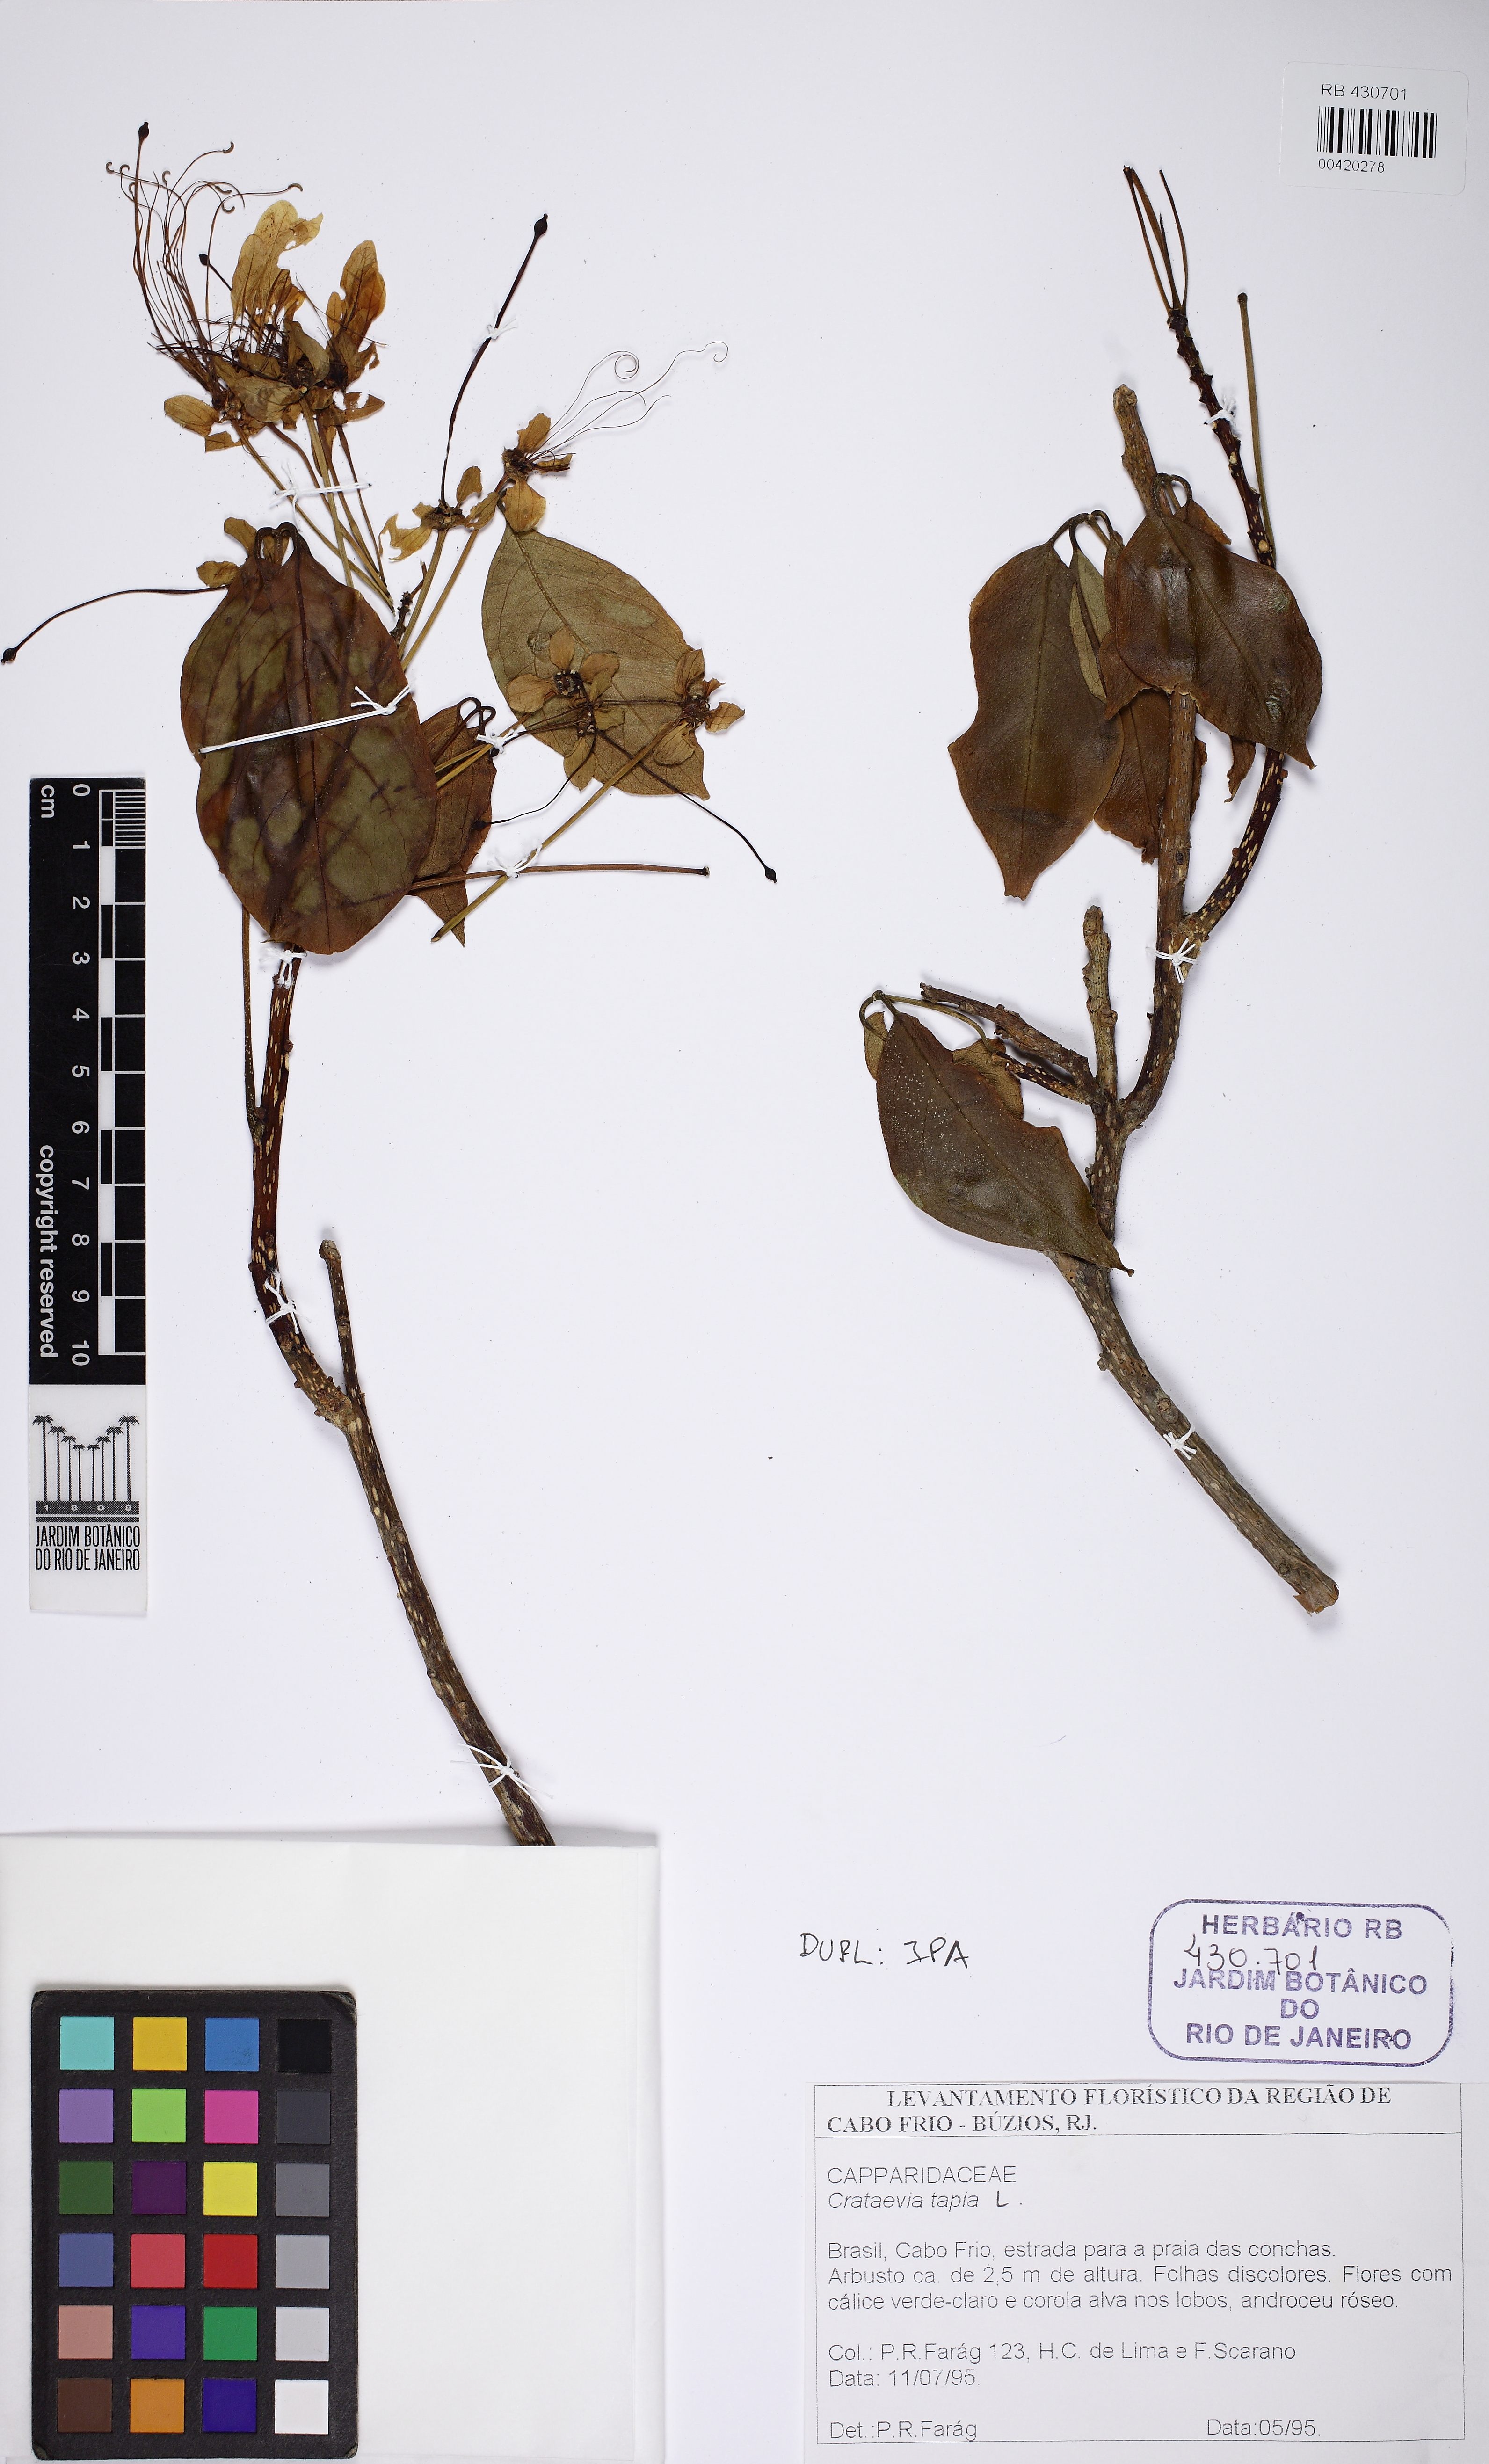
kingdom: Plantae
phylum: Tracheophyta
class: Magnoliopsida
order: Brassicales
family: Capparaceae
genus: Crateva
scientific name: Crateva tapia
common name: Garlic-pear
